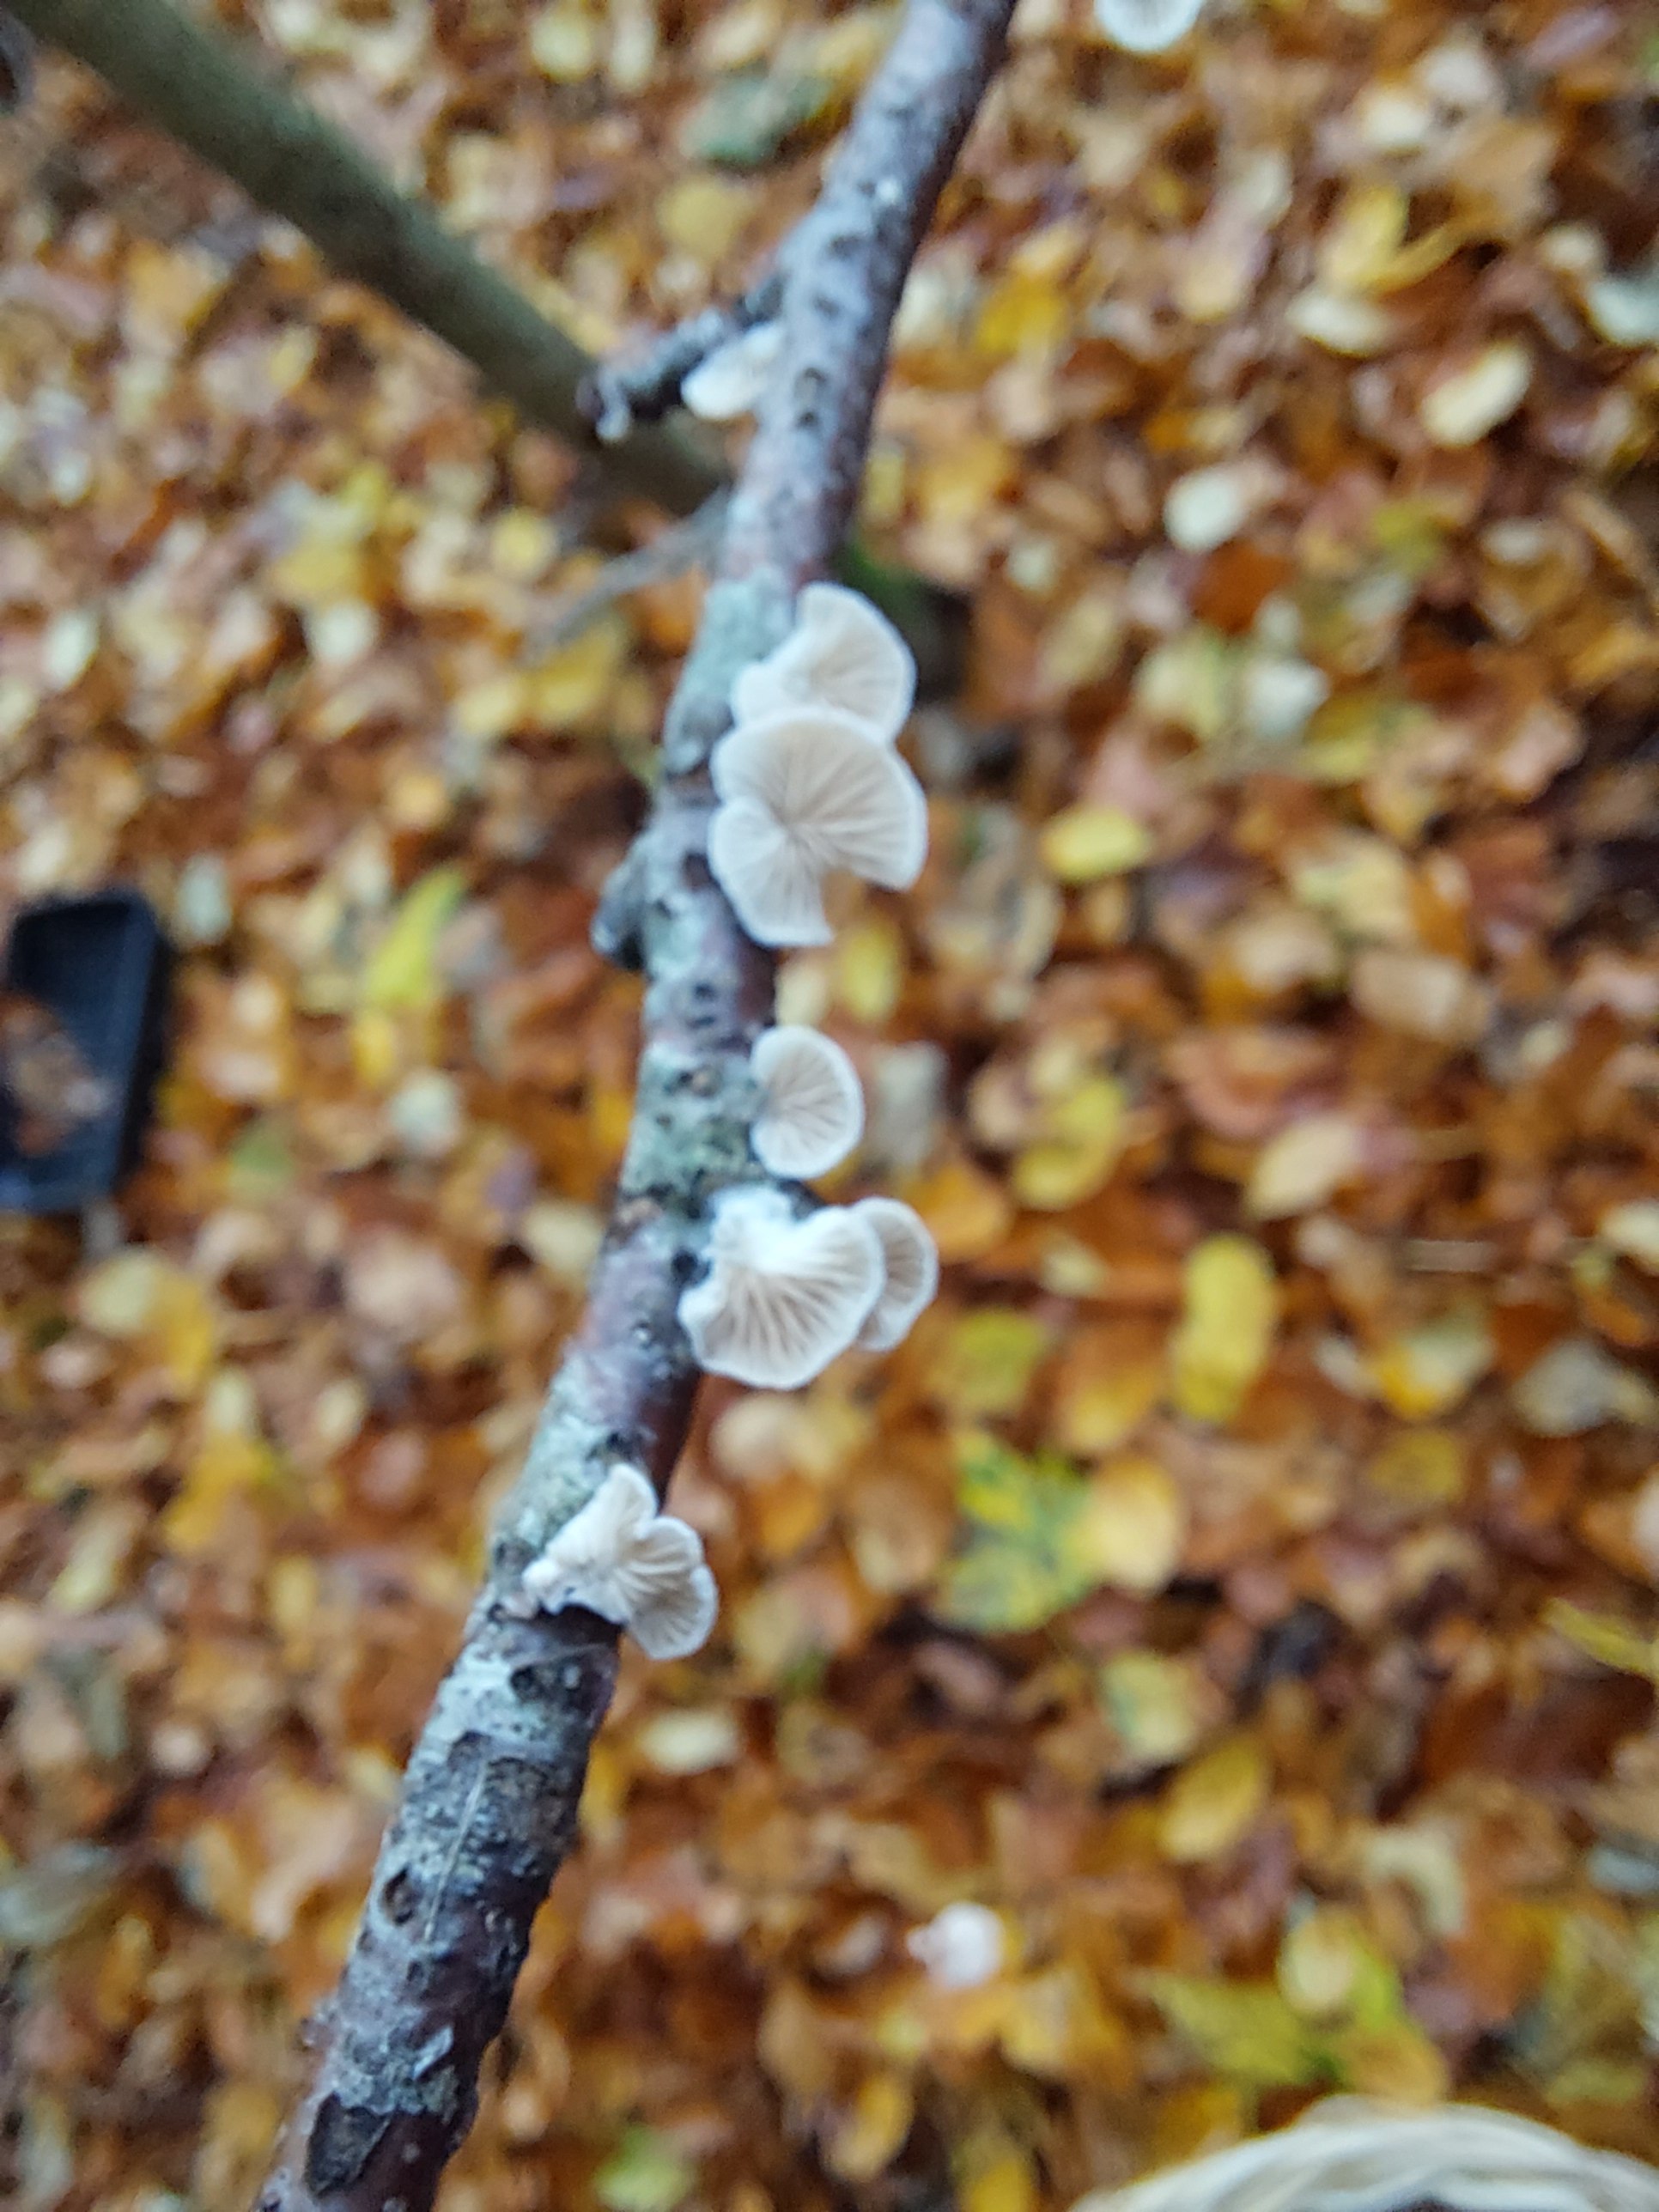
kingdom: Fungi
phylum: Basidiomycota
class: Agaricomycetes
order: Agaricales
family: Crepidotaceae
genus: Crepidotus
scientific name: Crepidotus
